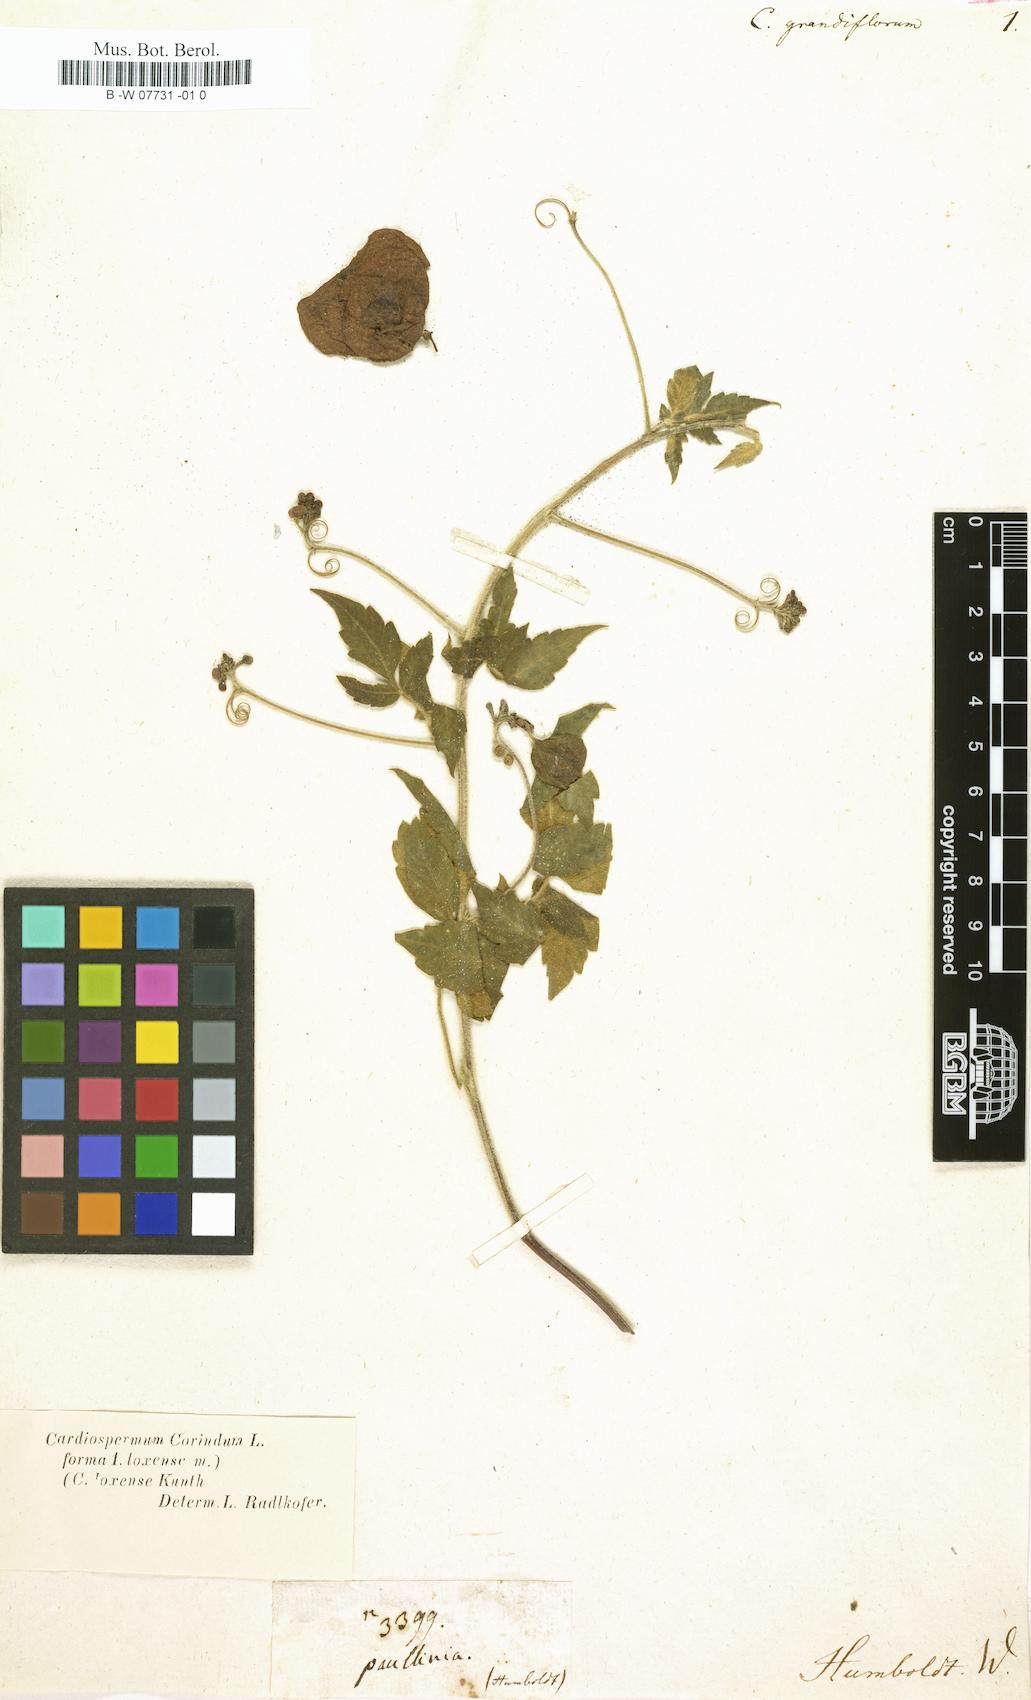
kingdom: Plantae
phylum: Tracheophyta
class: Magnoliopsida
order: Sapindales
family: Sapindaceae
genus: Cardiospermum
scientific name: Cardiospermum grandiflorum
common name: Balloon vine
